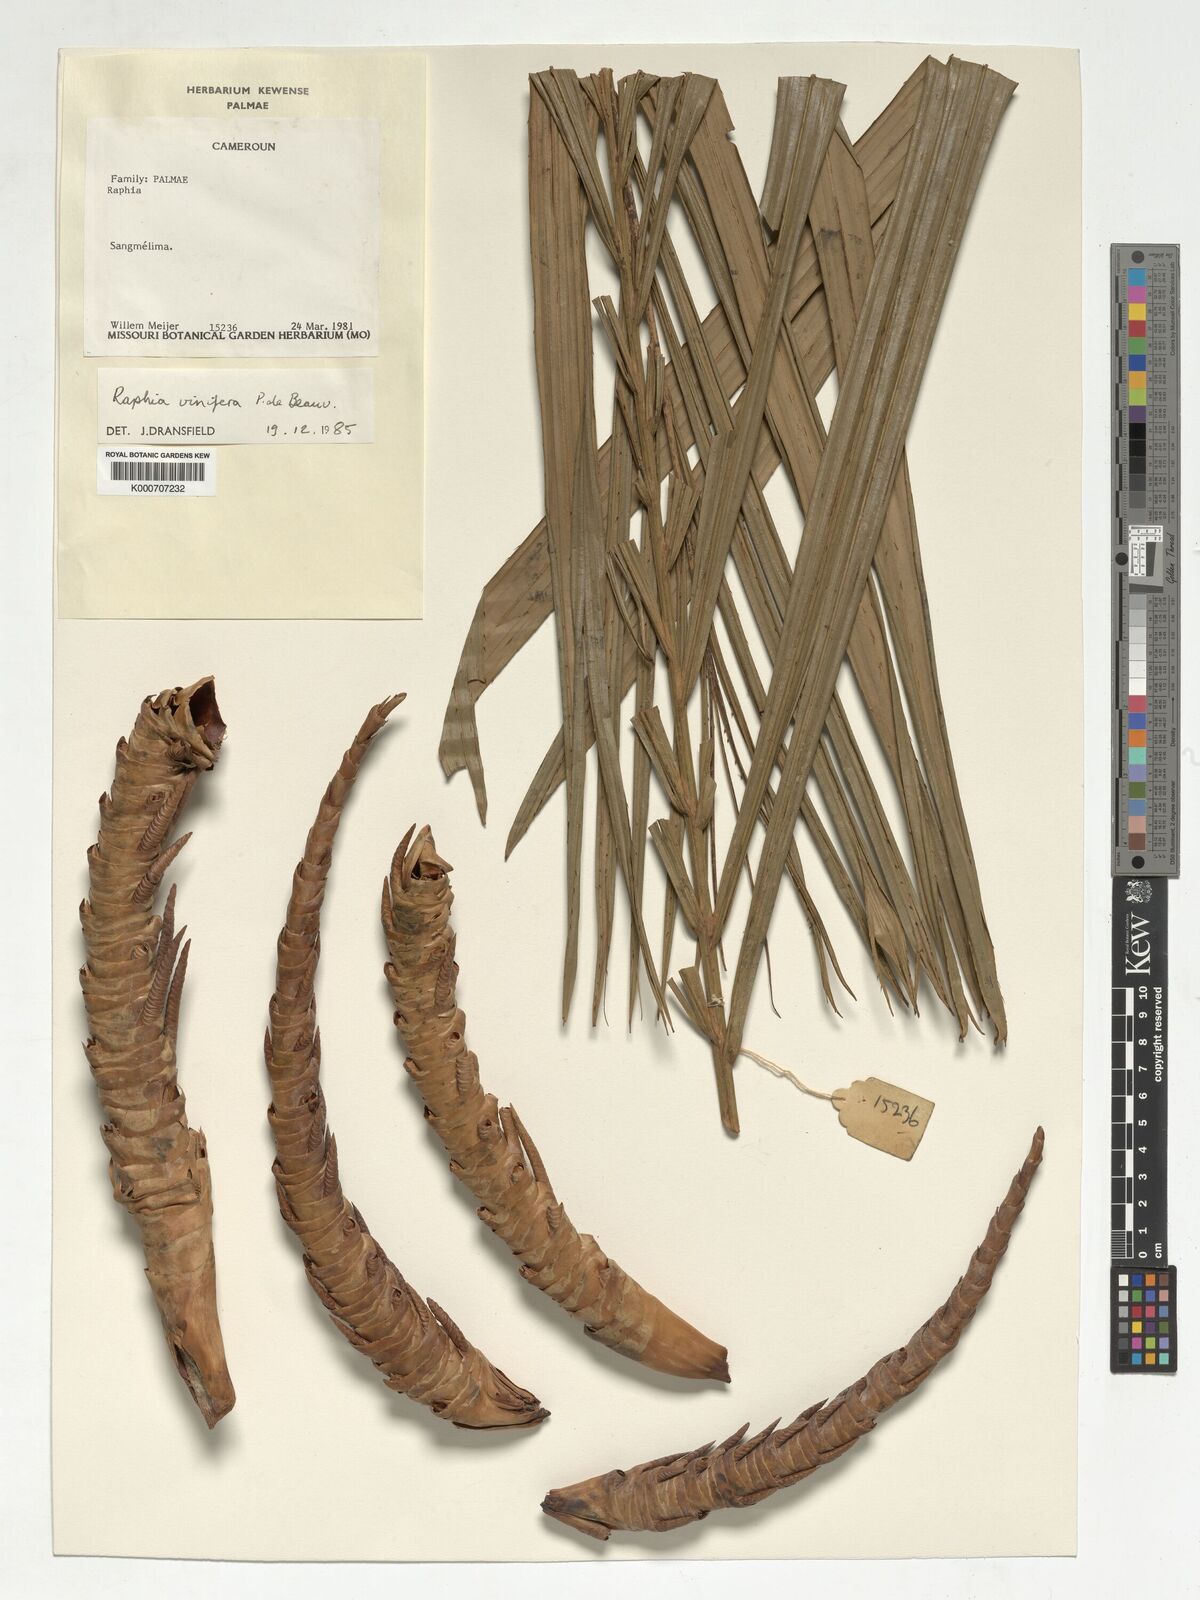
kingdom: Plantae
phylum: Tracheophyta
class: Liliopsida
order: Arecales
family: Arecaceae
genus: Raphia
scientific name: Raphia vinifera
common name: Raphia palm
